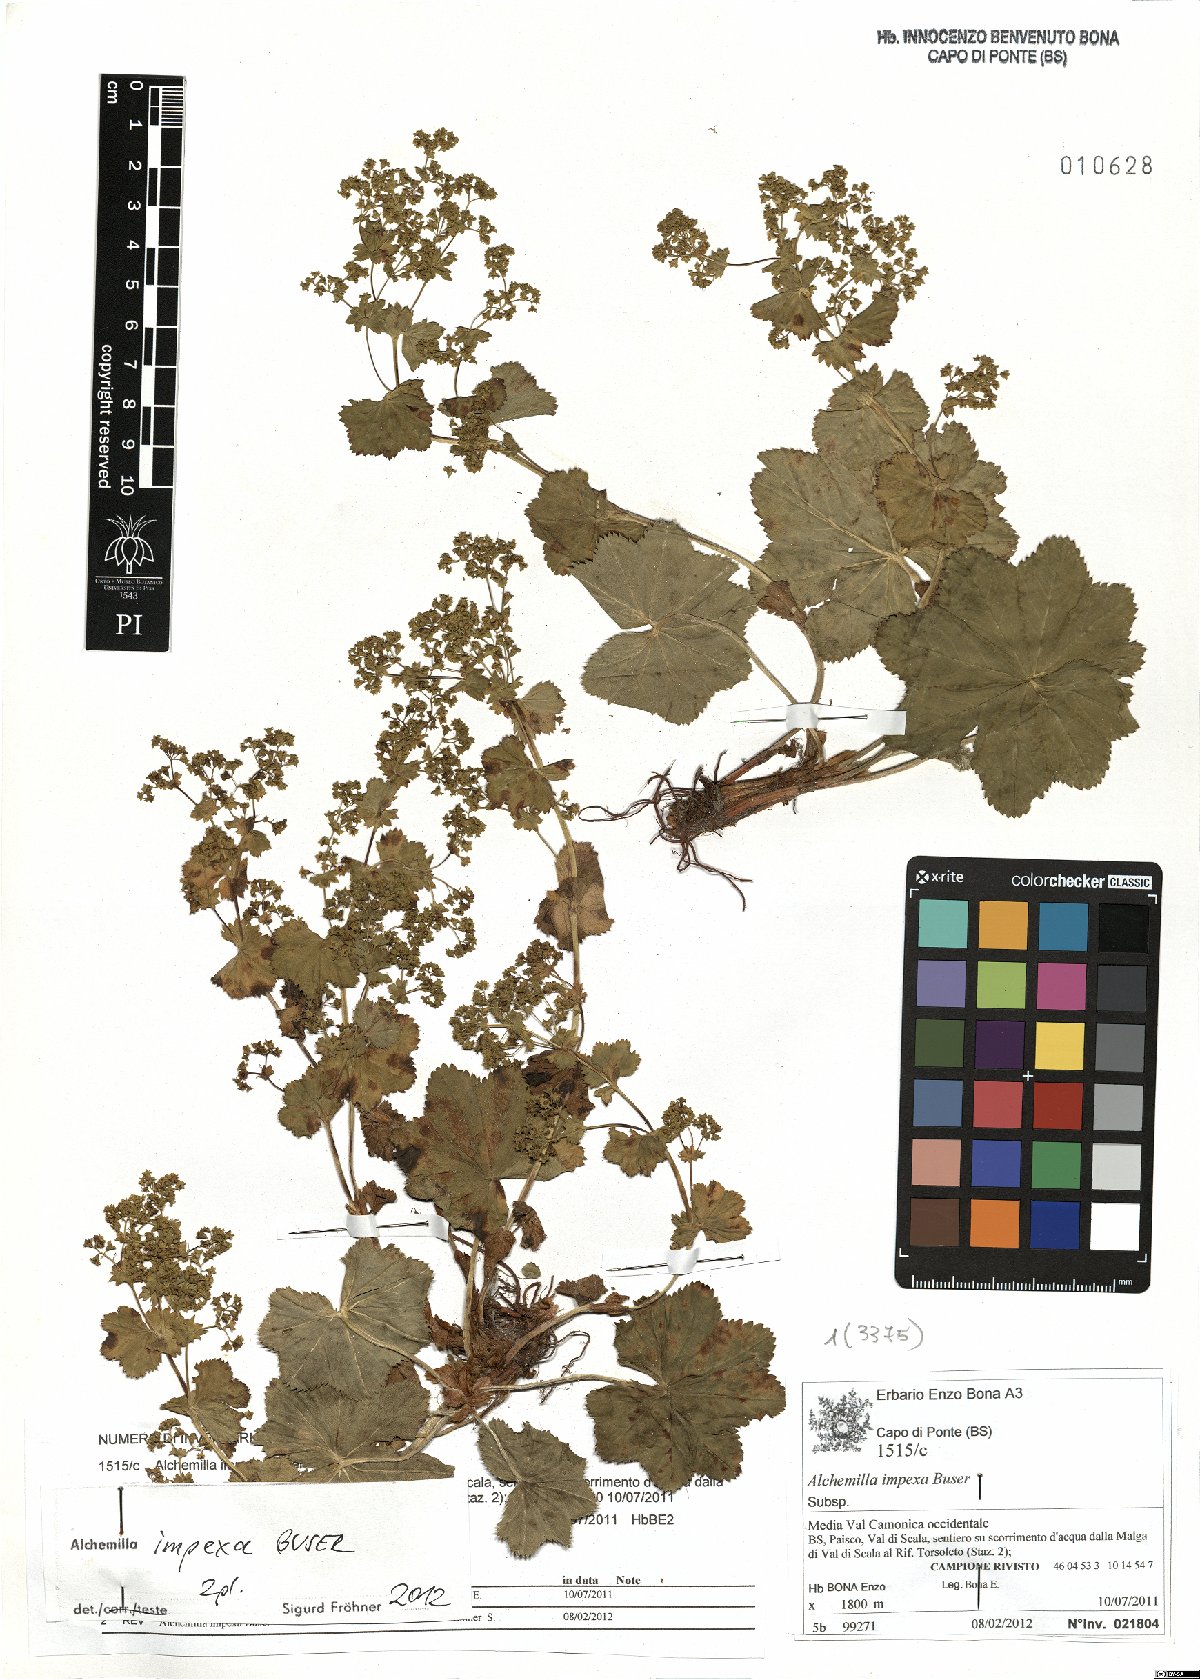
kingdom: Plantae
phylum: Tracheophyta
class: Magnoliopsida
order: Rosales
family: Rosaceae
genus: Alchemilla
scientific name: Alchemilla impexa
